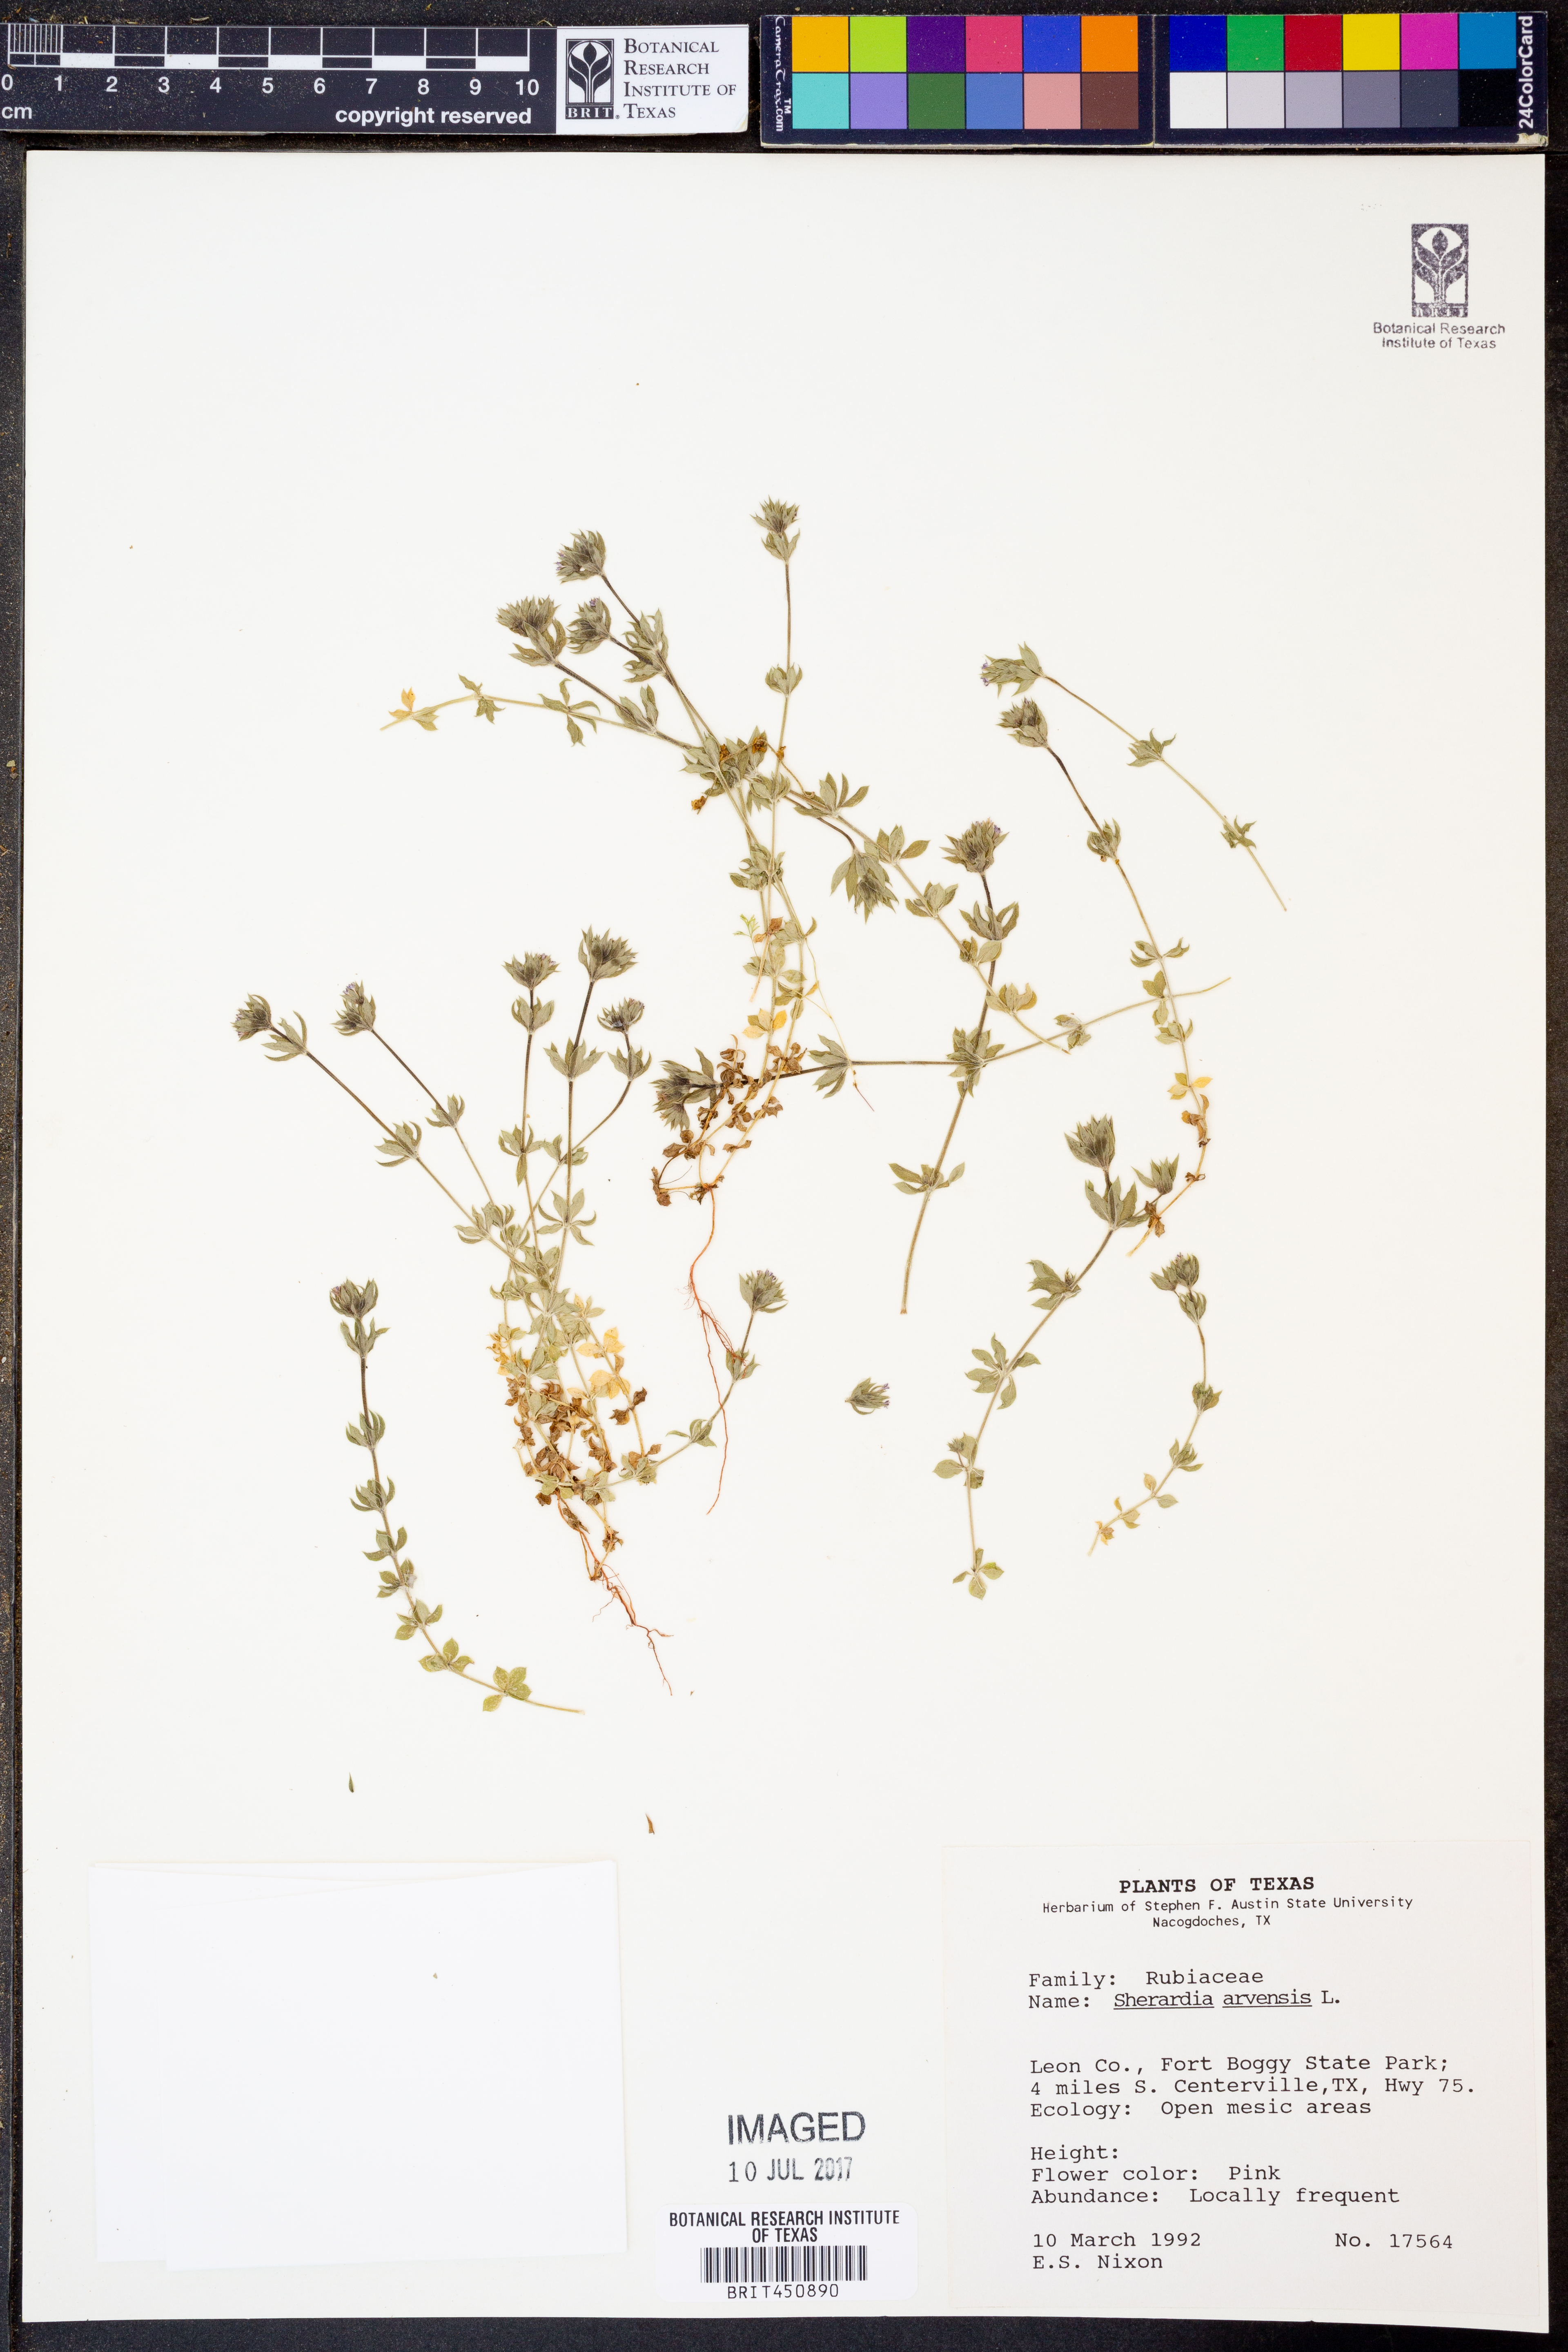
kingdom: Plantae
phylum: Tracheophyta
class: Magnoliopsida
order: Gentianales
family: Rubiaceae
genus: Sherardia
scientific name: Sherardia arvensis
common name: Field madder
